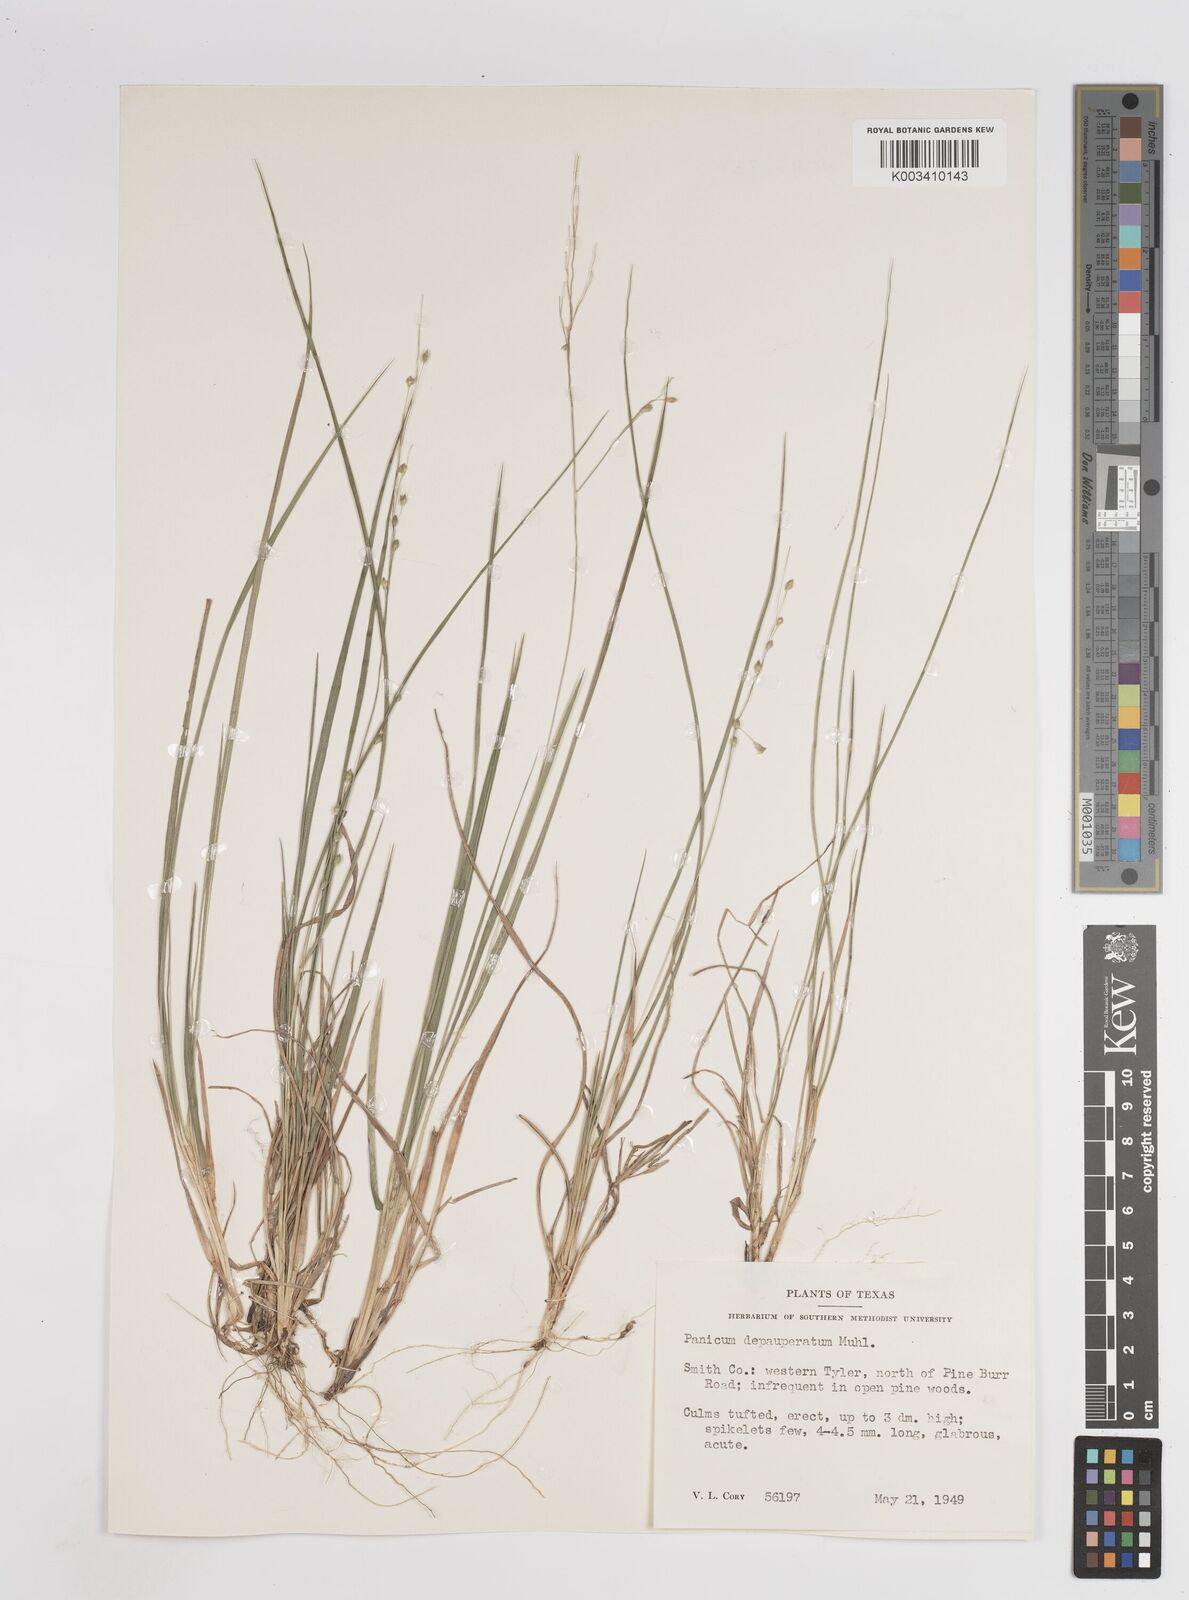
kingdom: Plantae
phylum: Tracheophyta
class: Liliopsida
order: Poales
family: Poaceae
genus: Dichanthelium
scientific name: Dichanthelium depauperatum
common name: Depauperate panicgrass
